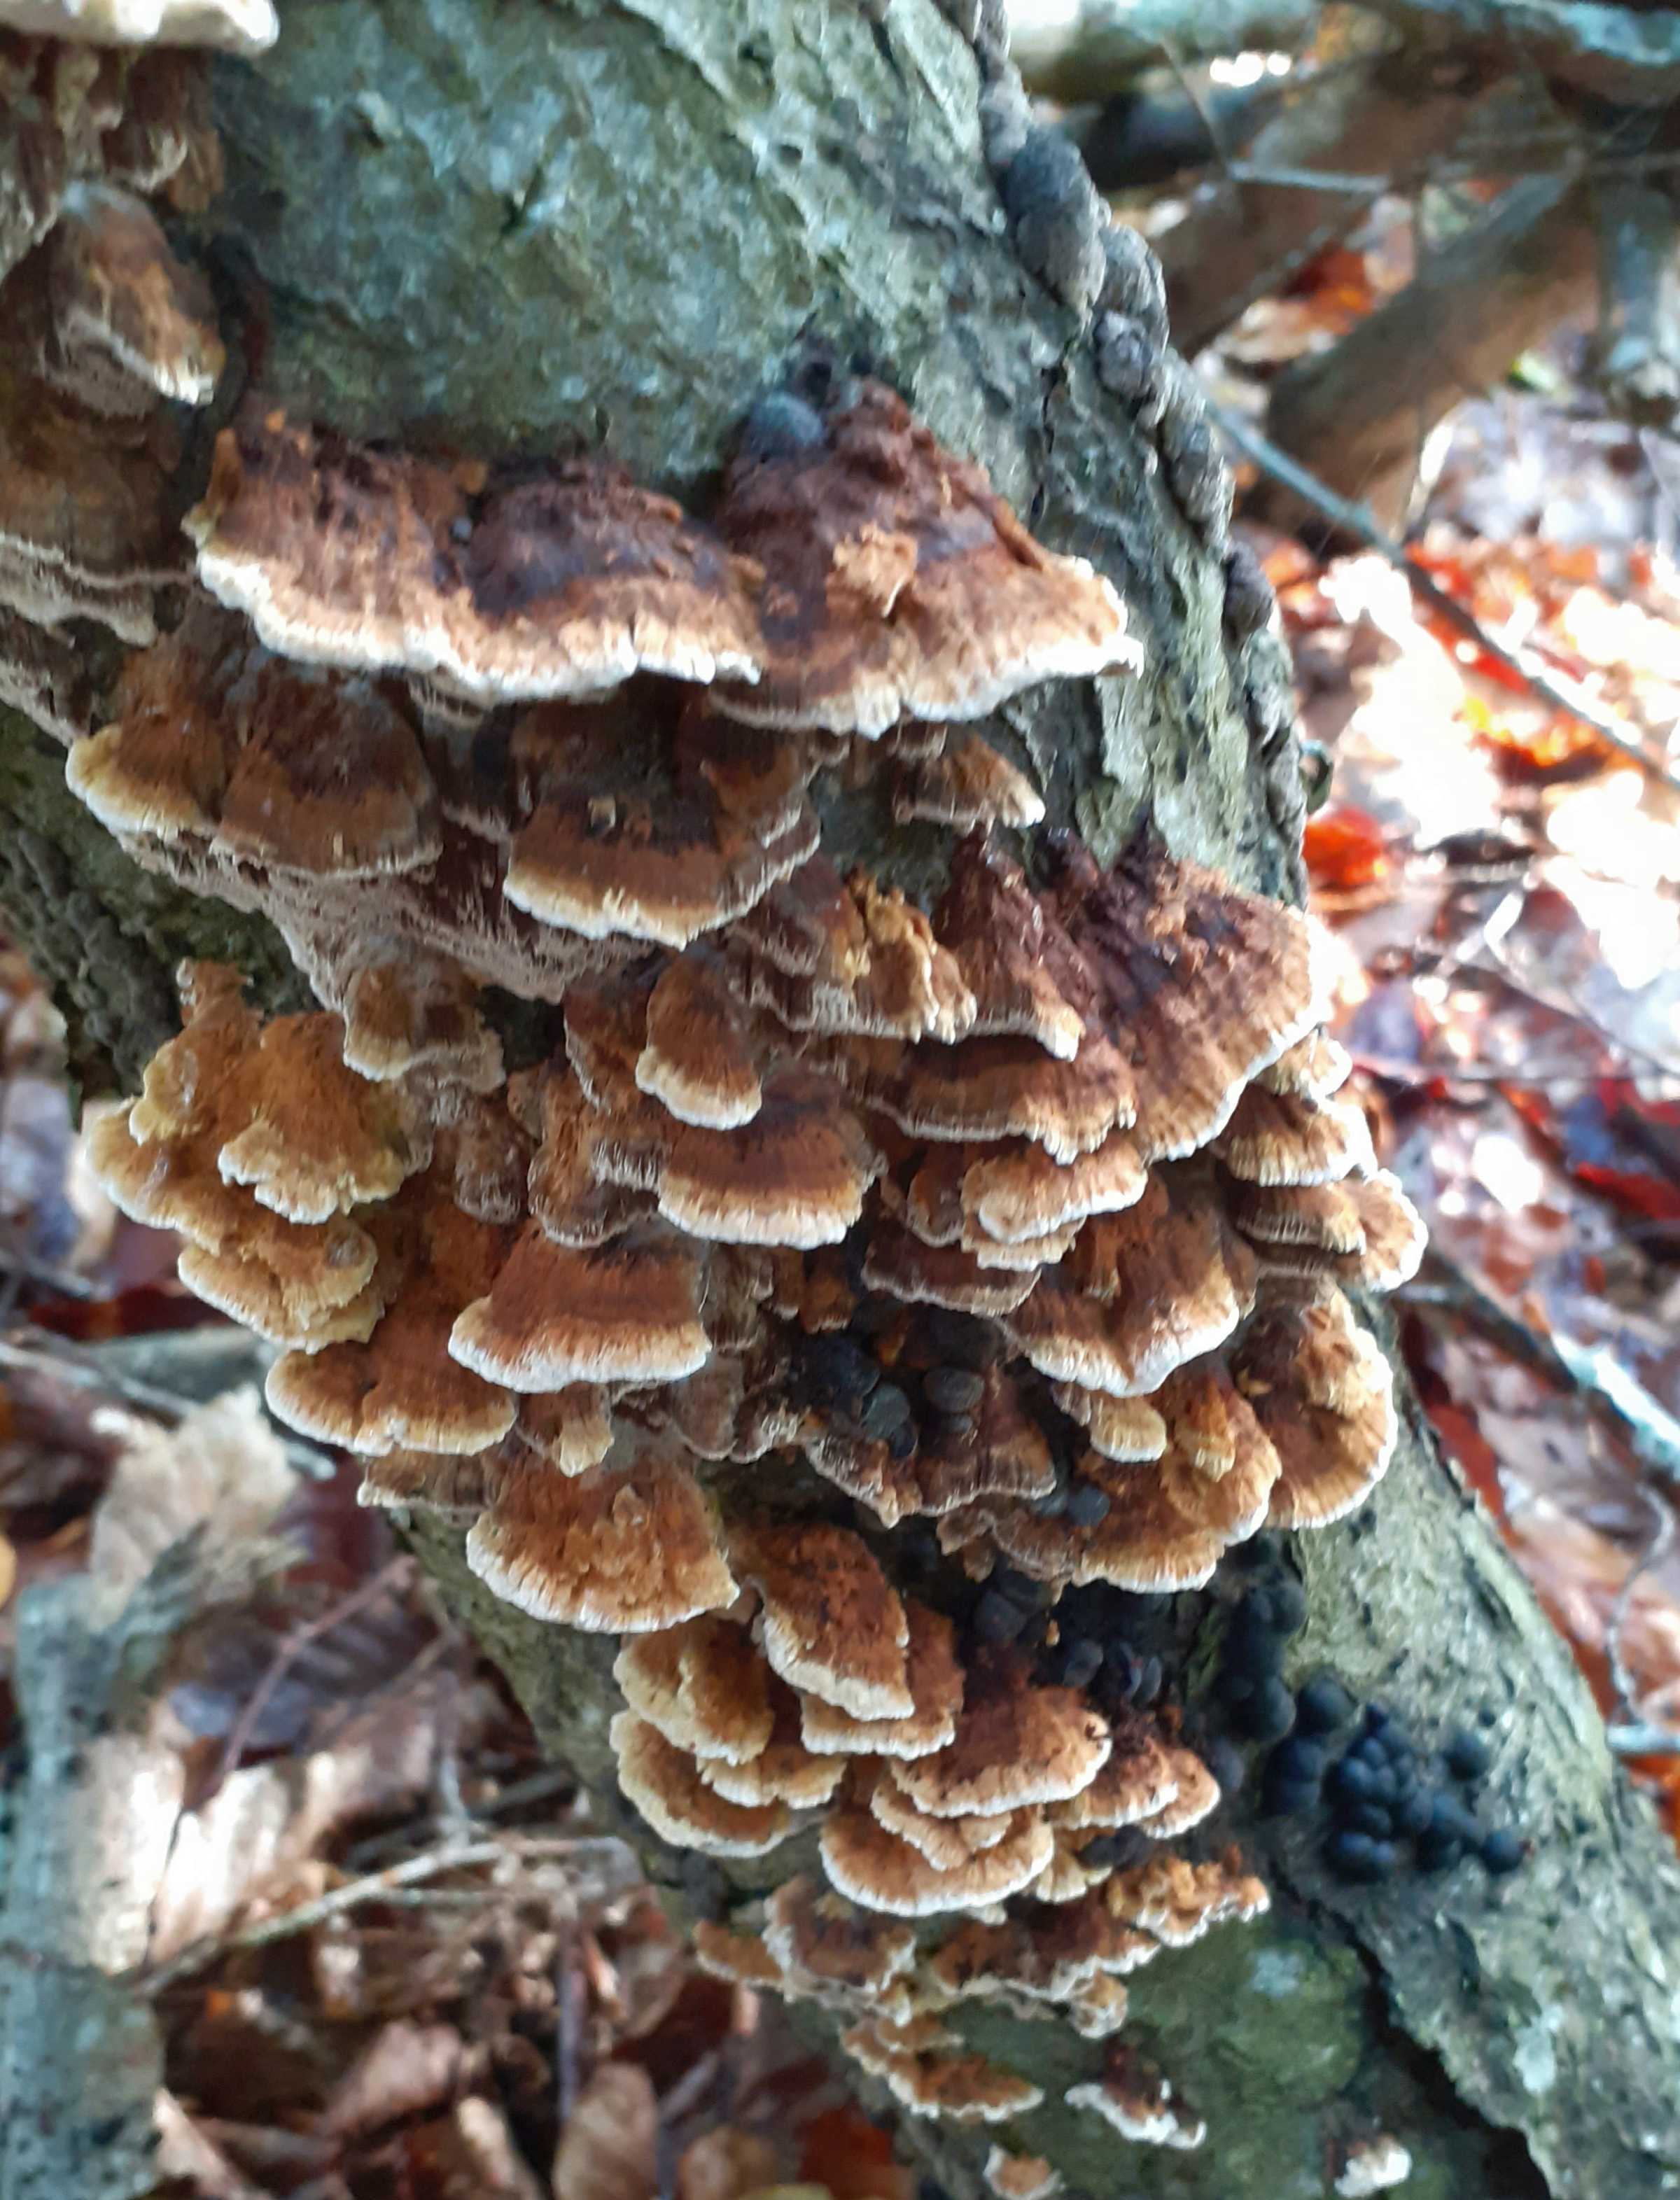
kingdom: Fungi
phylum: Basidiomycota
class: Agaricomycetes
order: Hymenochaetales
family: Hymenochaetaceae
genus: Mensularia
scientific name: Mensularia nodulosa
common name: bøge-spejlporesvamp
